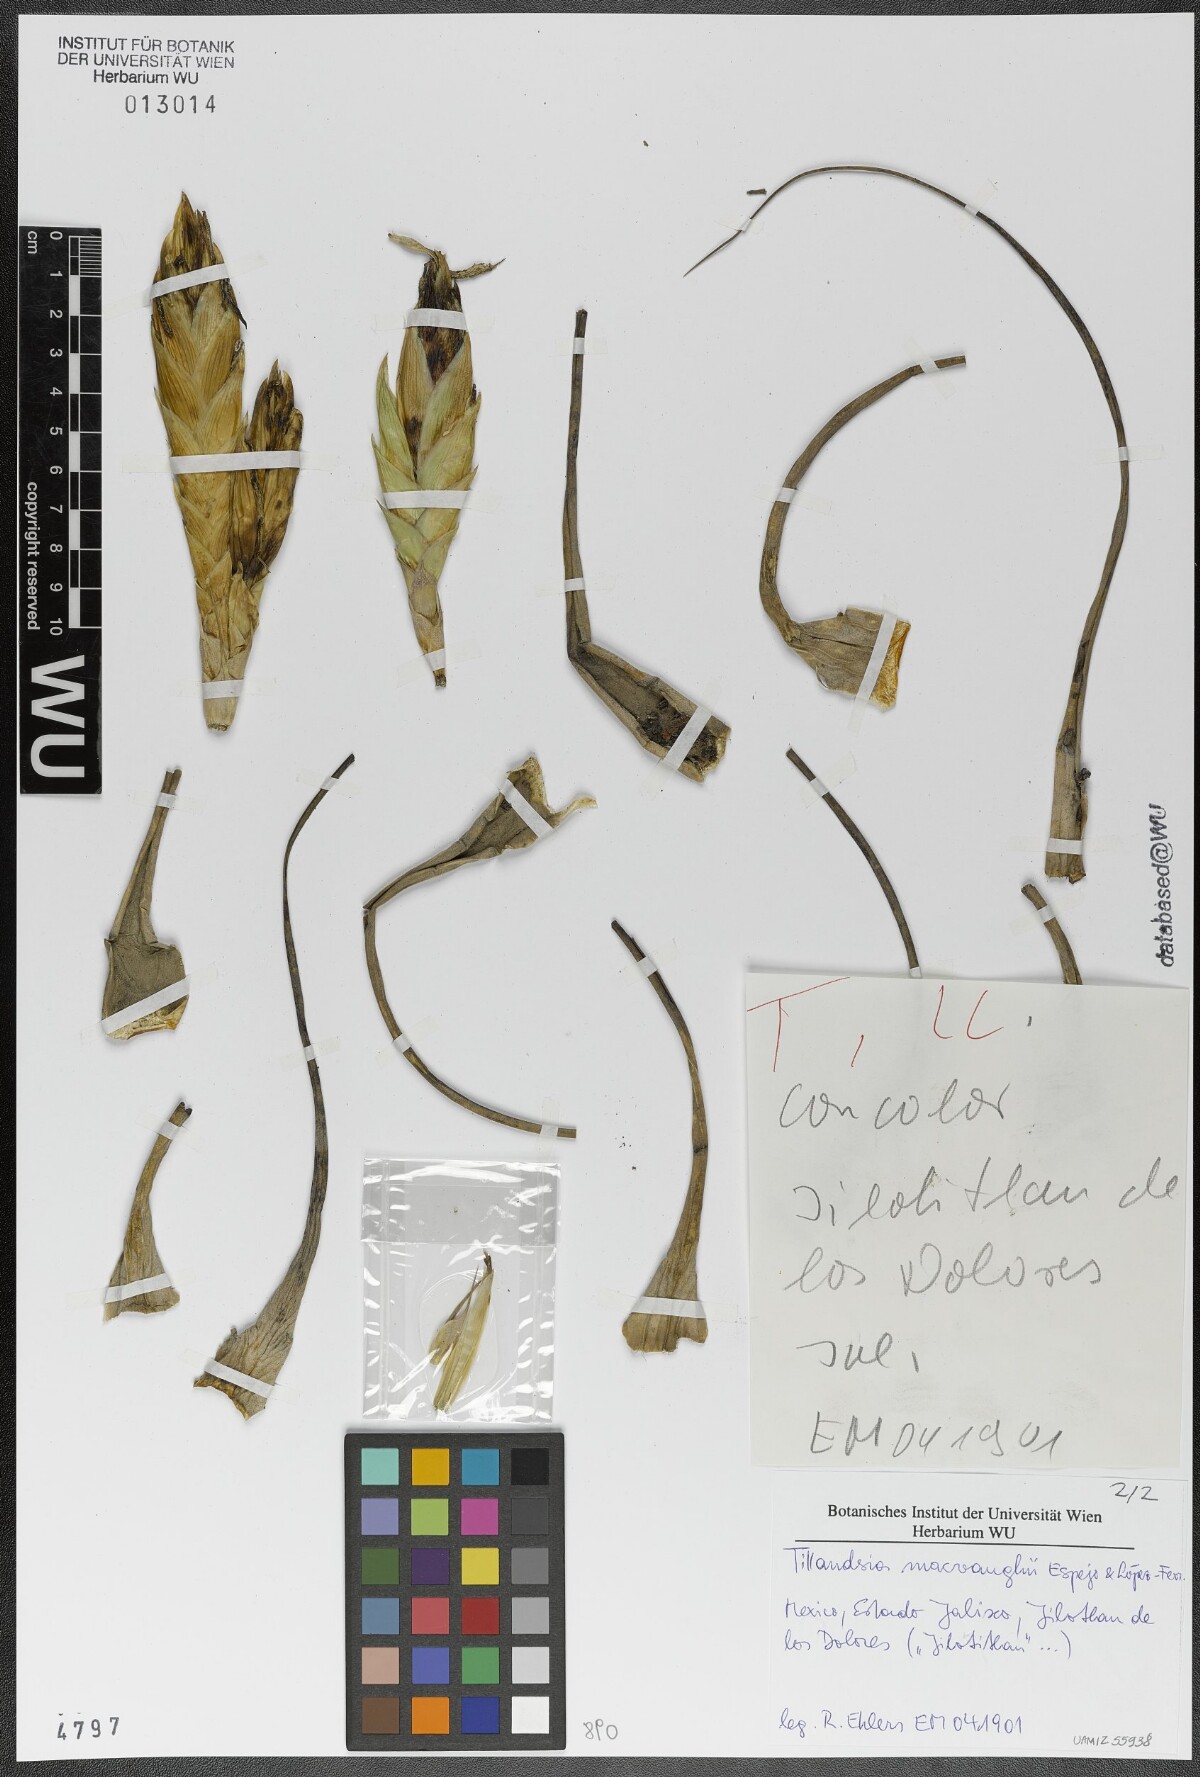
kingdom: Plantae
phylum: Tracheophyta
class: Liliopsida
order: Poales
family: Bromeliaceae
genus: Tillandsia
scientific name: Tillandsia macvaughii
